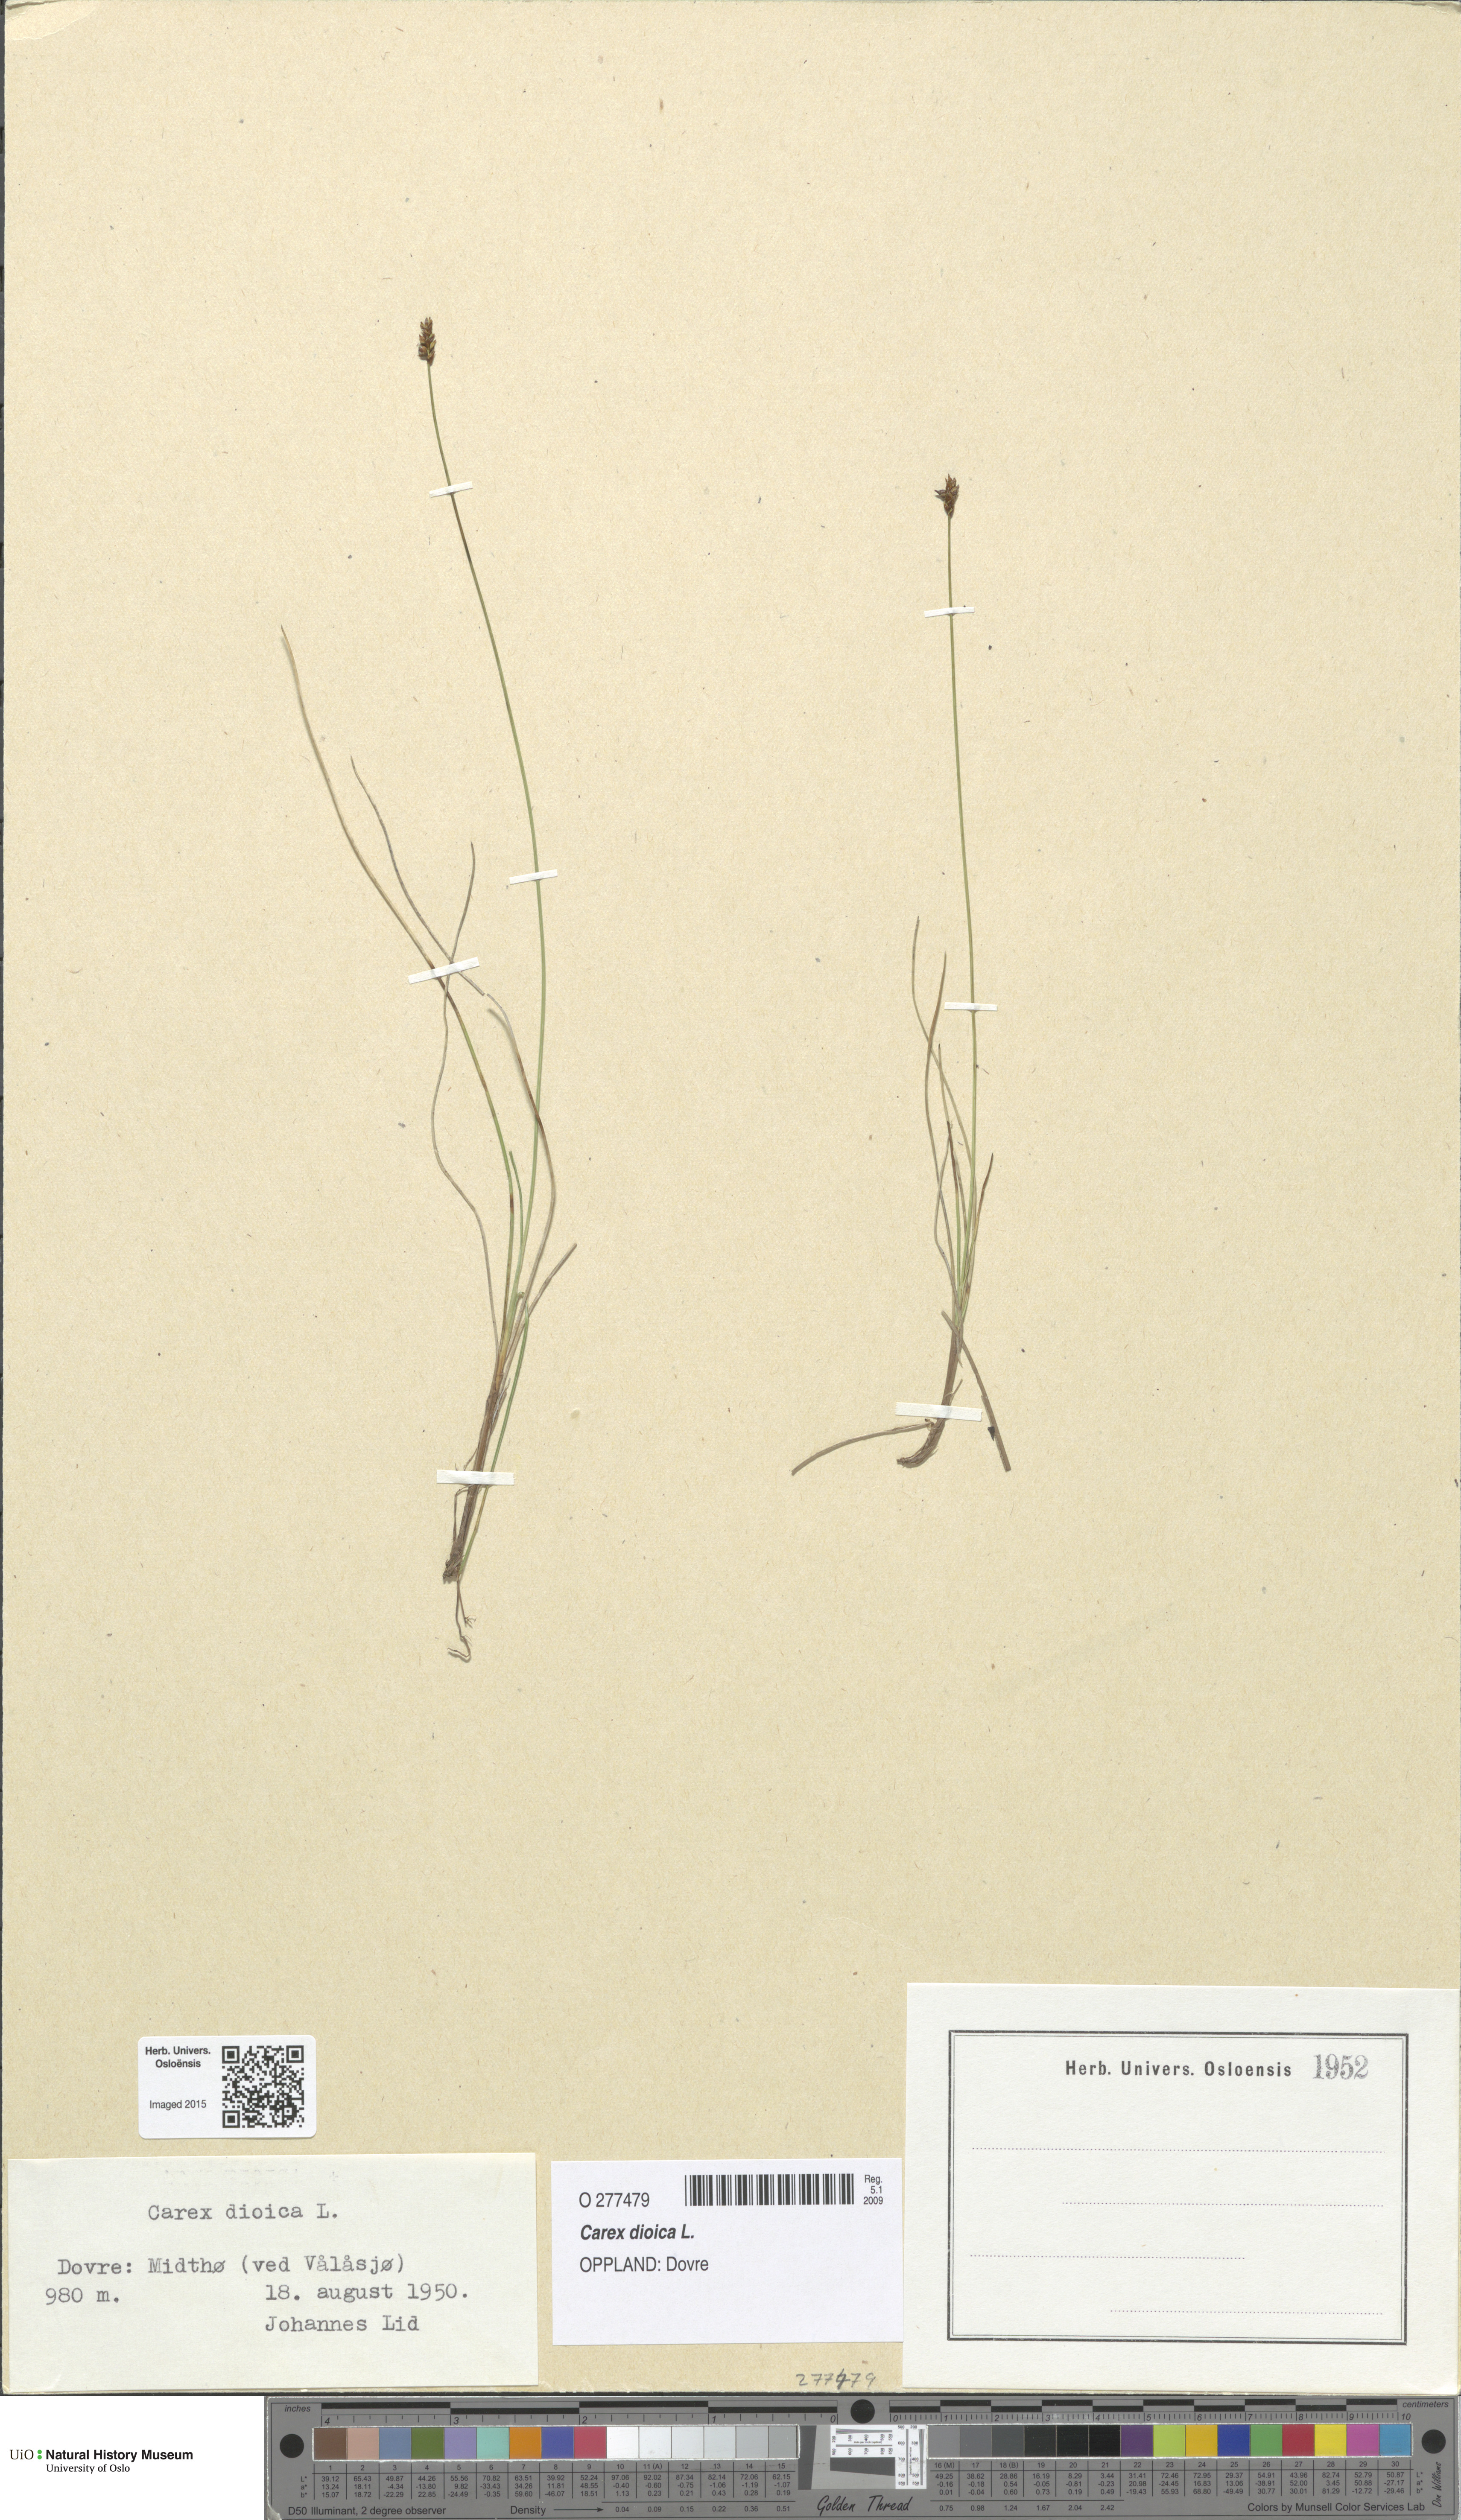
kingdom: Plantae
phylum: Tracheophyta
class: Liliopsida
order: Poales
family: Cyperaceae
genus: Carex
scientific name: Carex dioica
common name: Dioecious sedge
